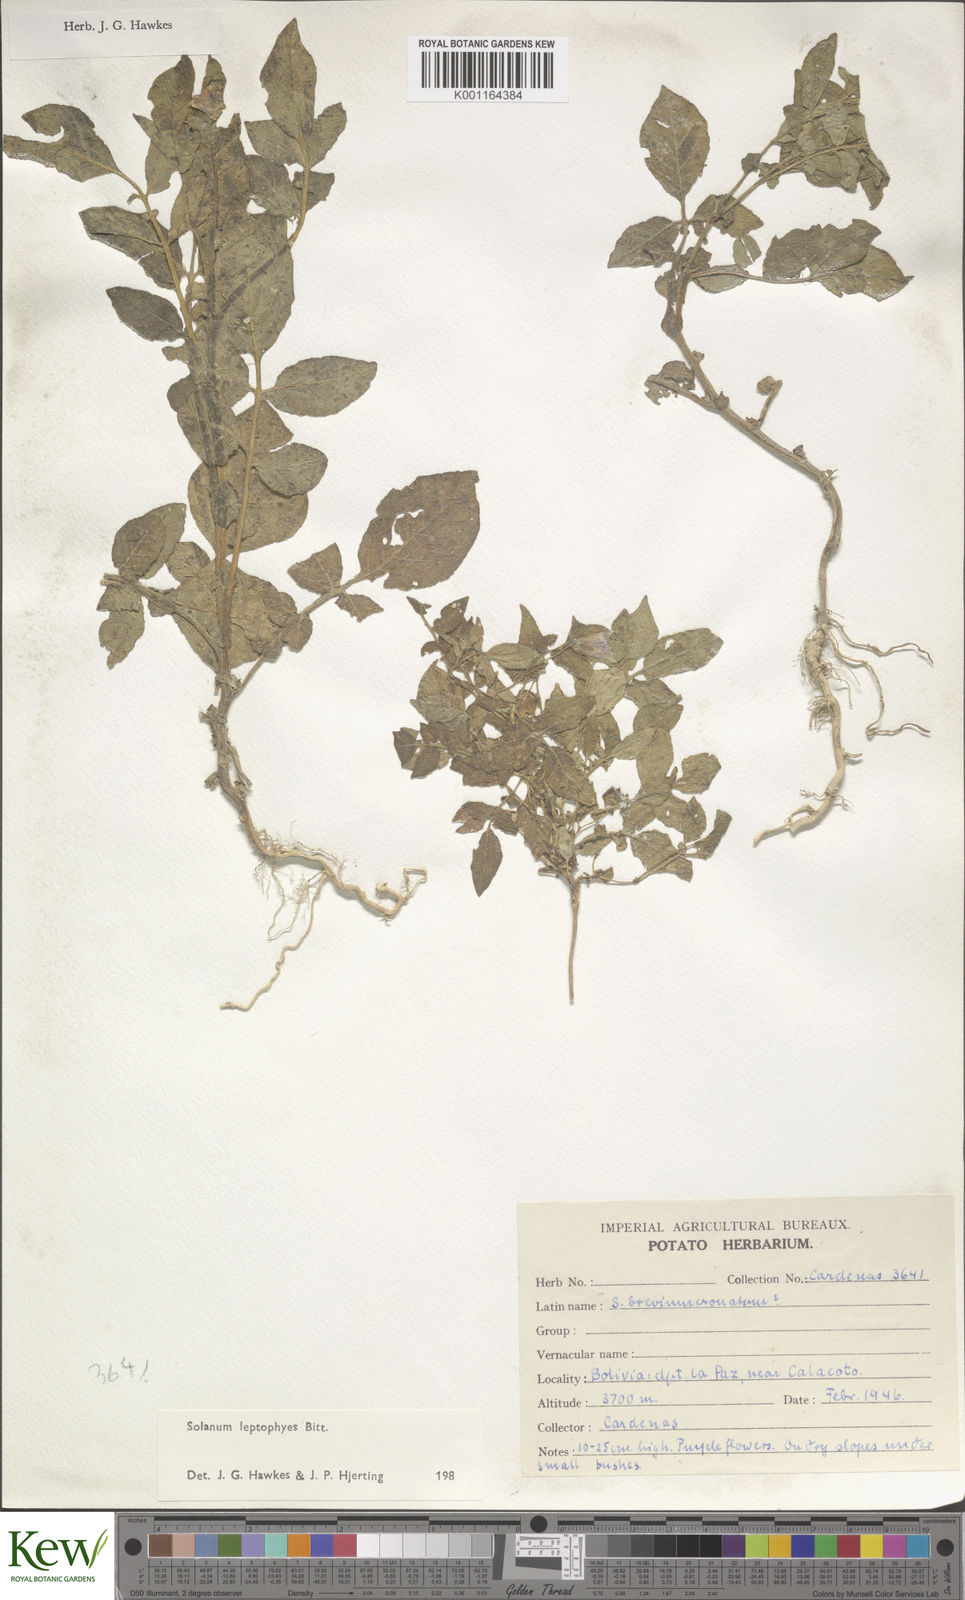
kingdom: Plantae
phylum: Tracheophyta
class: Magnoliopsida
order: Solanales
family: Solanaceae
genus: Solanum
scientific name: Solanum brevicaule
